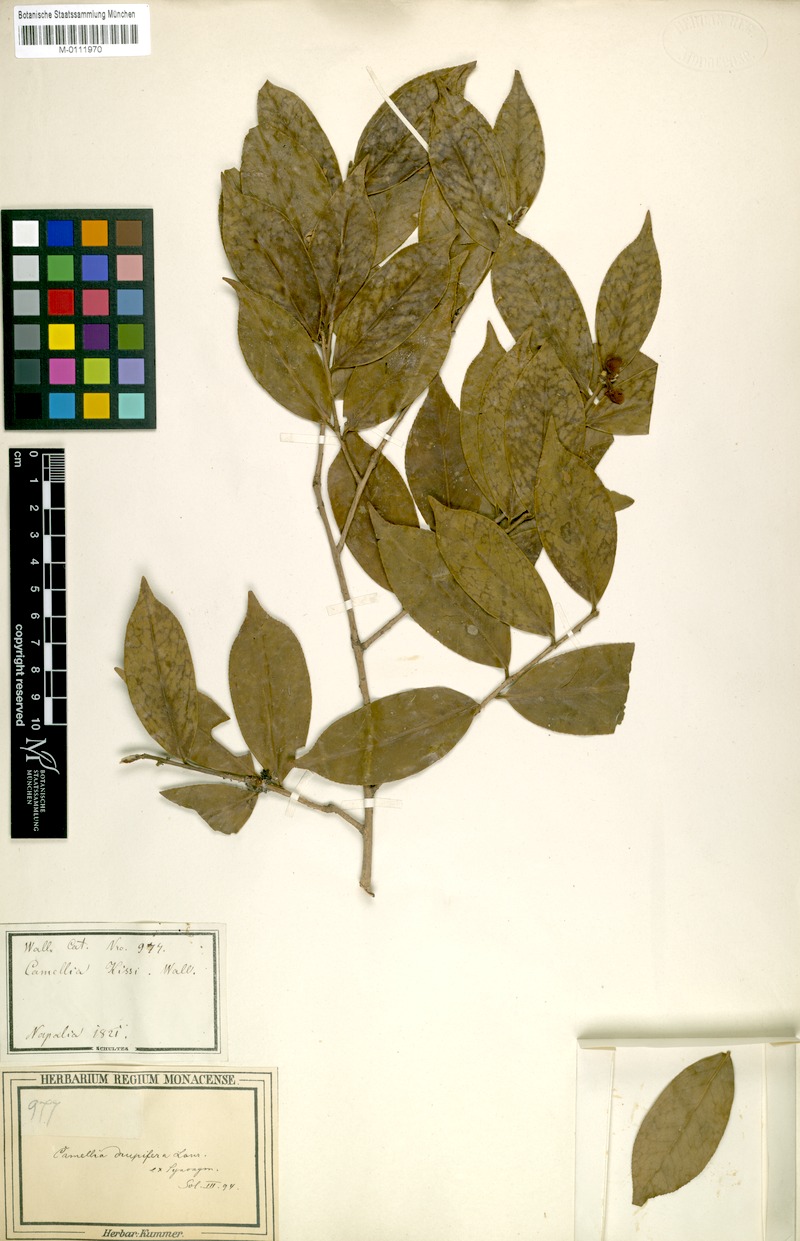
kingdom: Plantae
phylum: Tracheophyta
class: Magnoliopsida
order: Ericales
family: Theaceae
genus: Camellia
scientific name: Camellia kissii
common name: Nepal camellia
